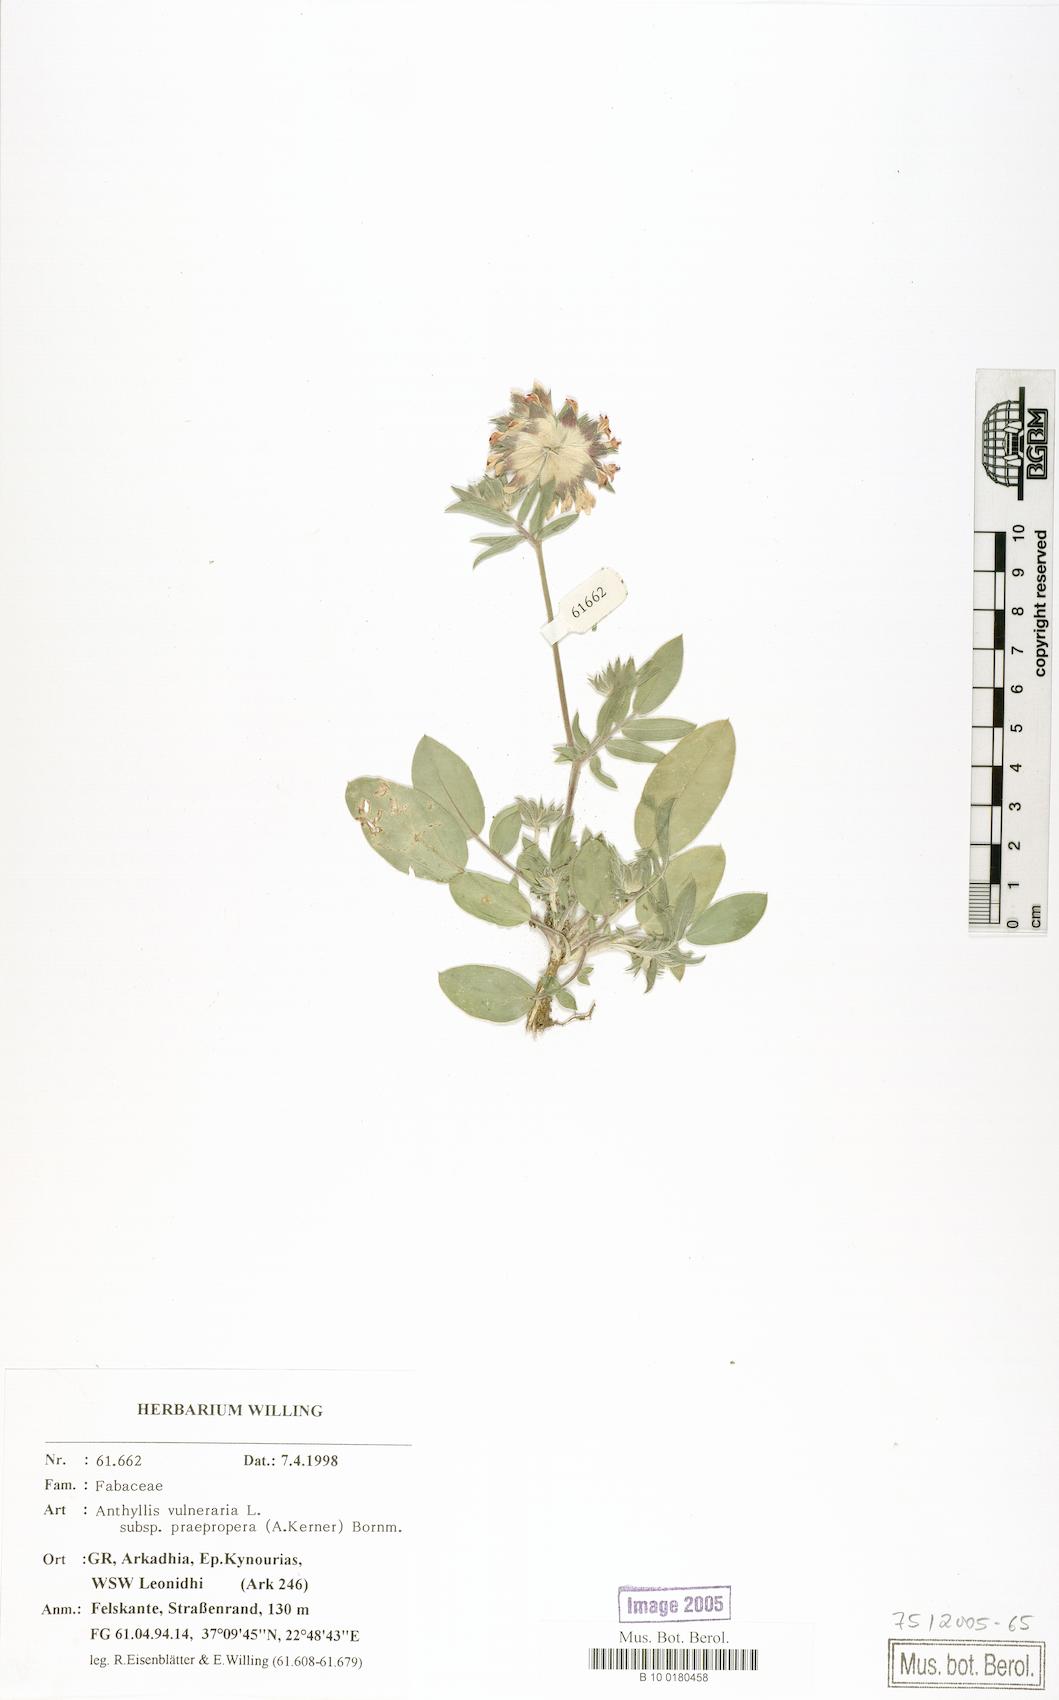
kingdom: Plantae
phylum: Tracheophyta
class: Magnoliopsida
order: Fabales
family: Fabaceae
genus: Anthyllis
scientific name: Anthyllis vulneraria
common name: Kidney vetch
